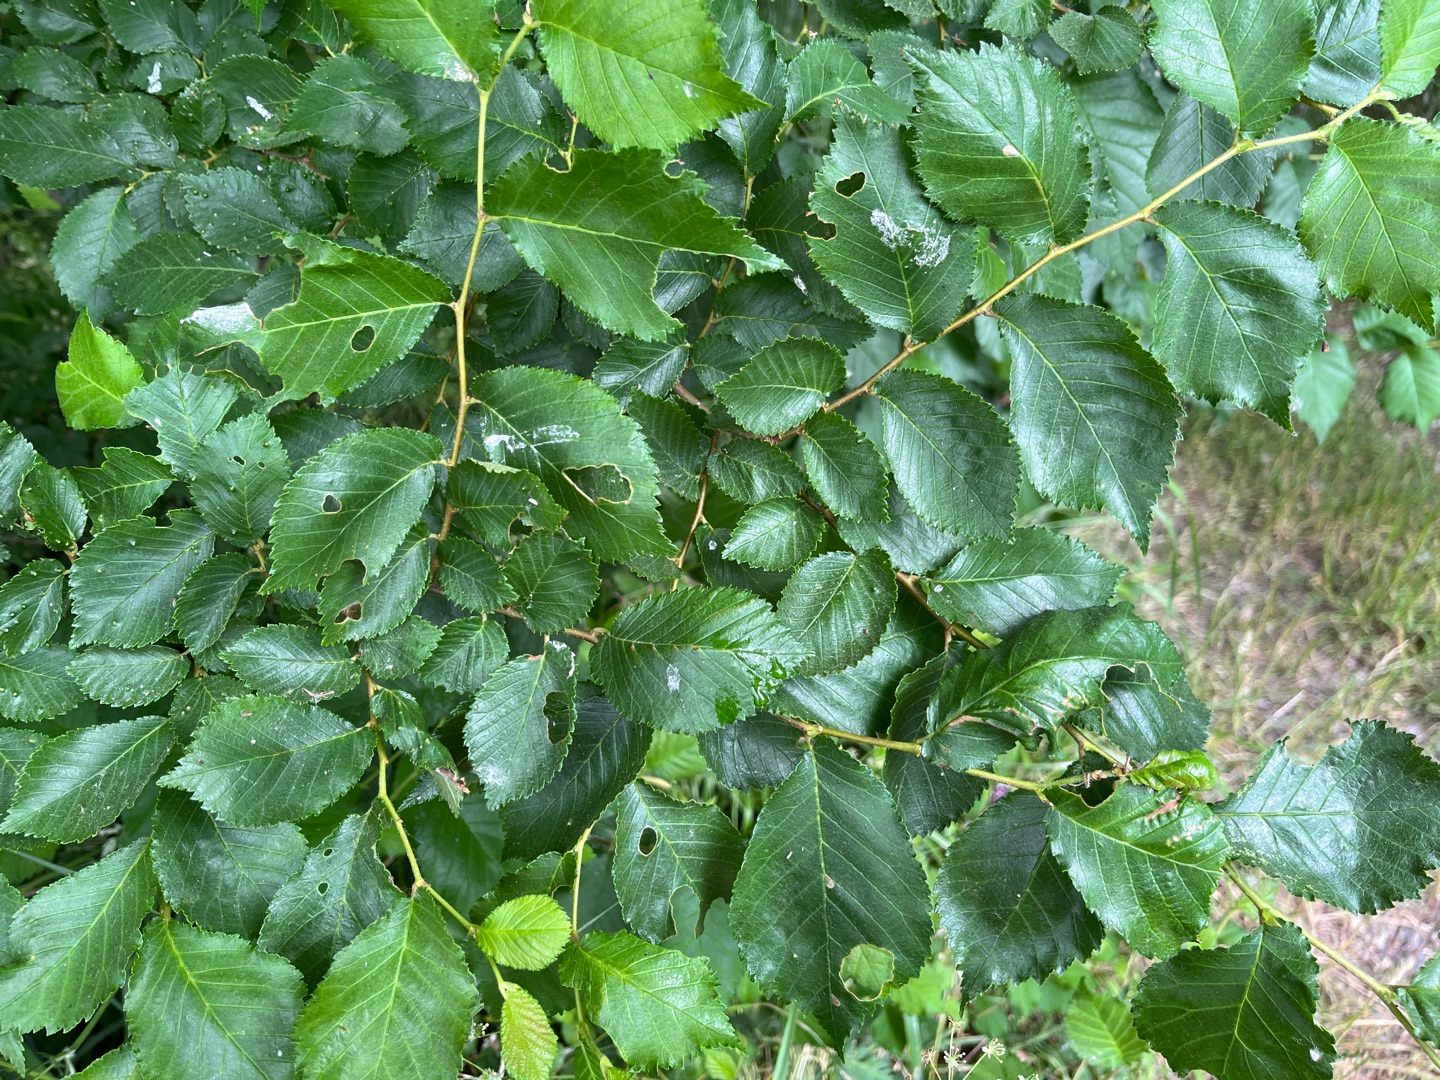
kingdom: Plantae
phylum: Tracheophyta
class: Magnoliopsida
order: Rosales
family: Ulmaceae
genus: Ulmus
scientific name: Ulmus minor
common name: Småbladet elm
